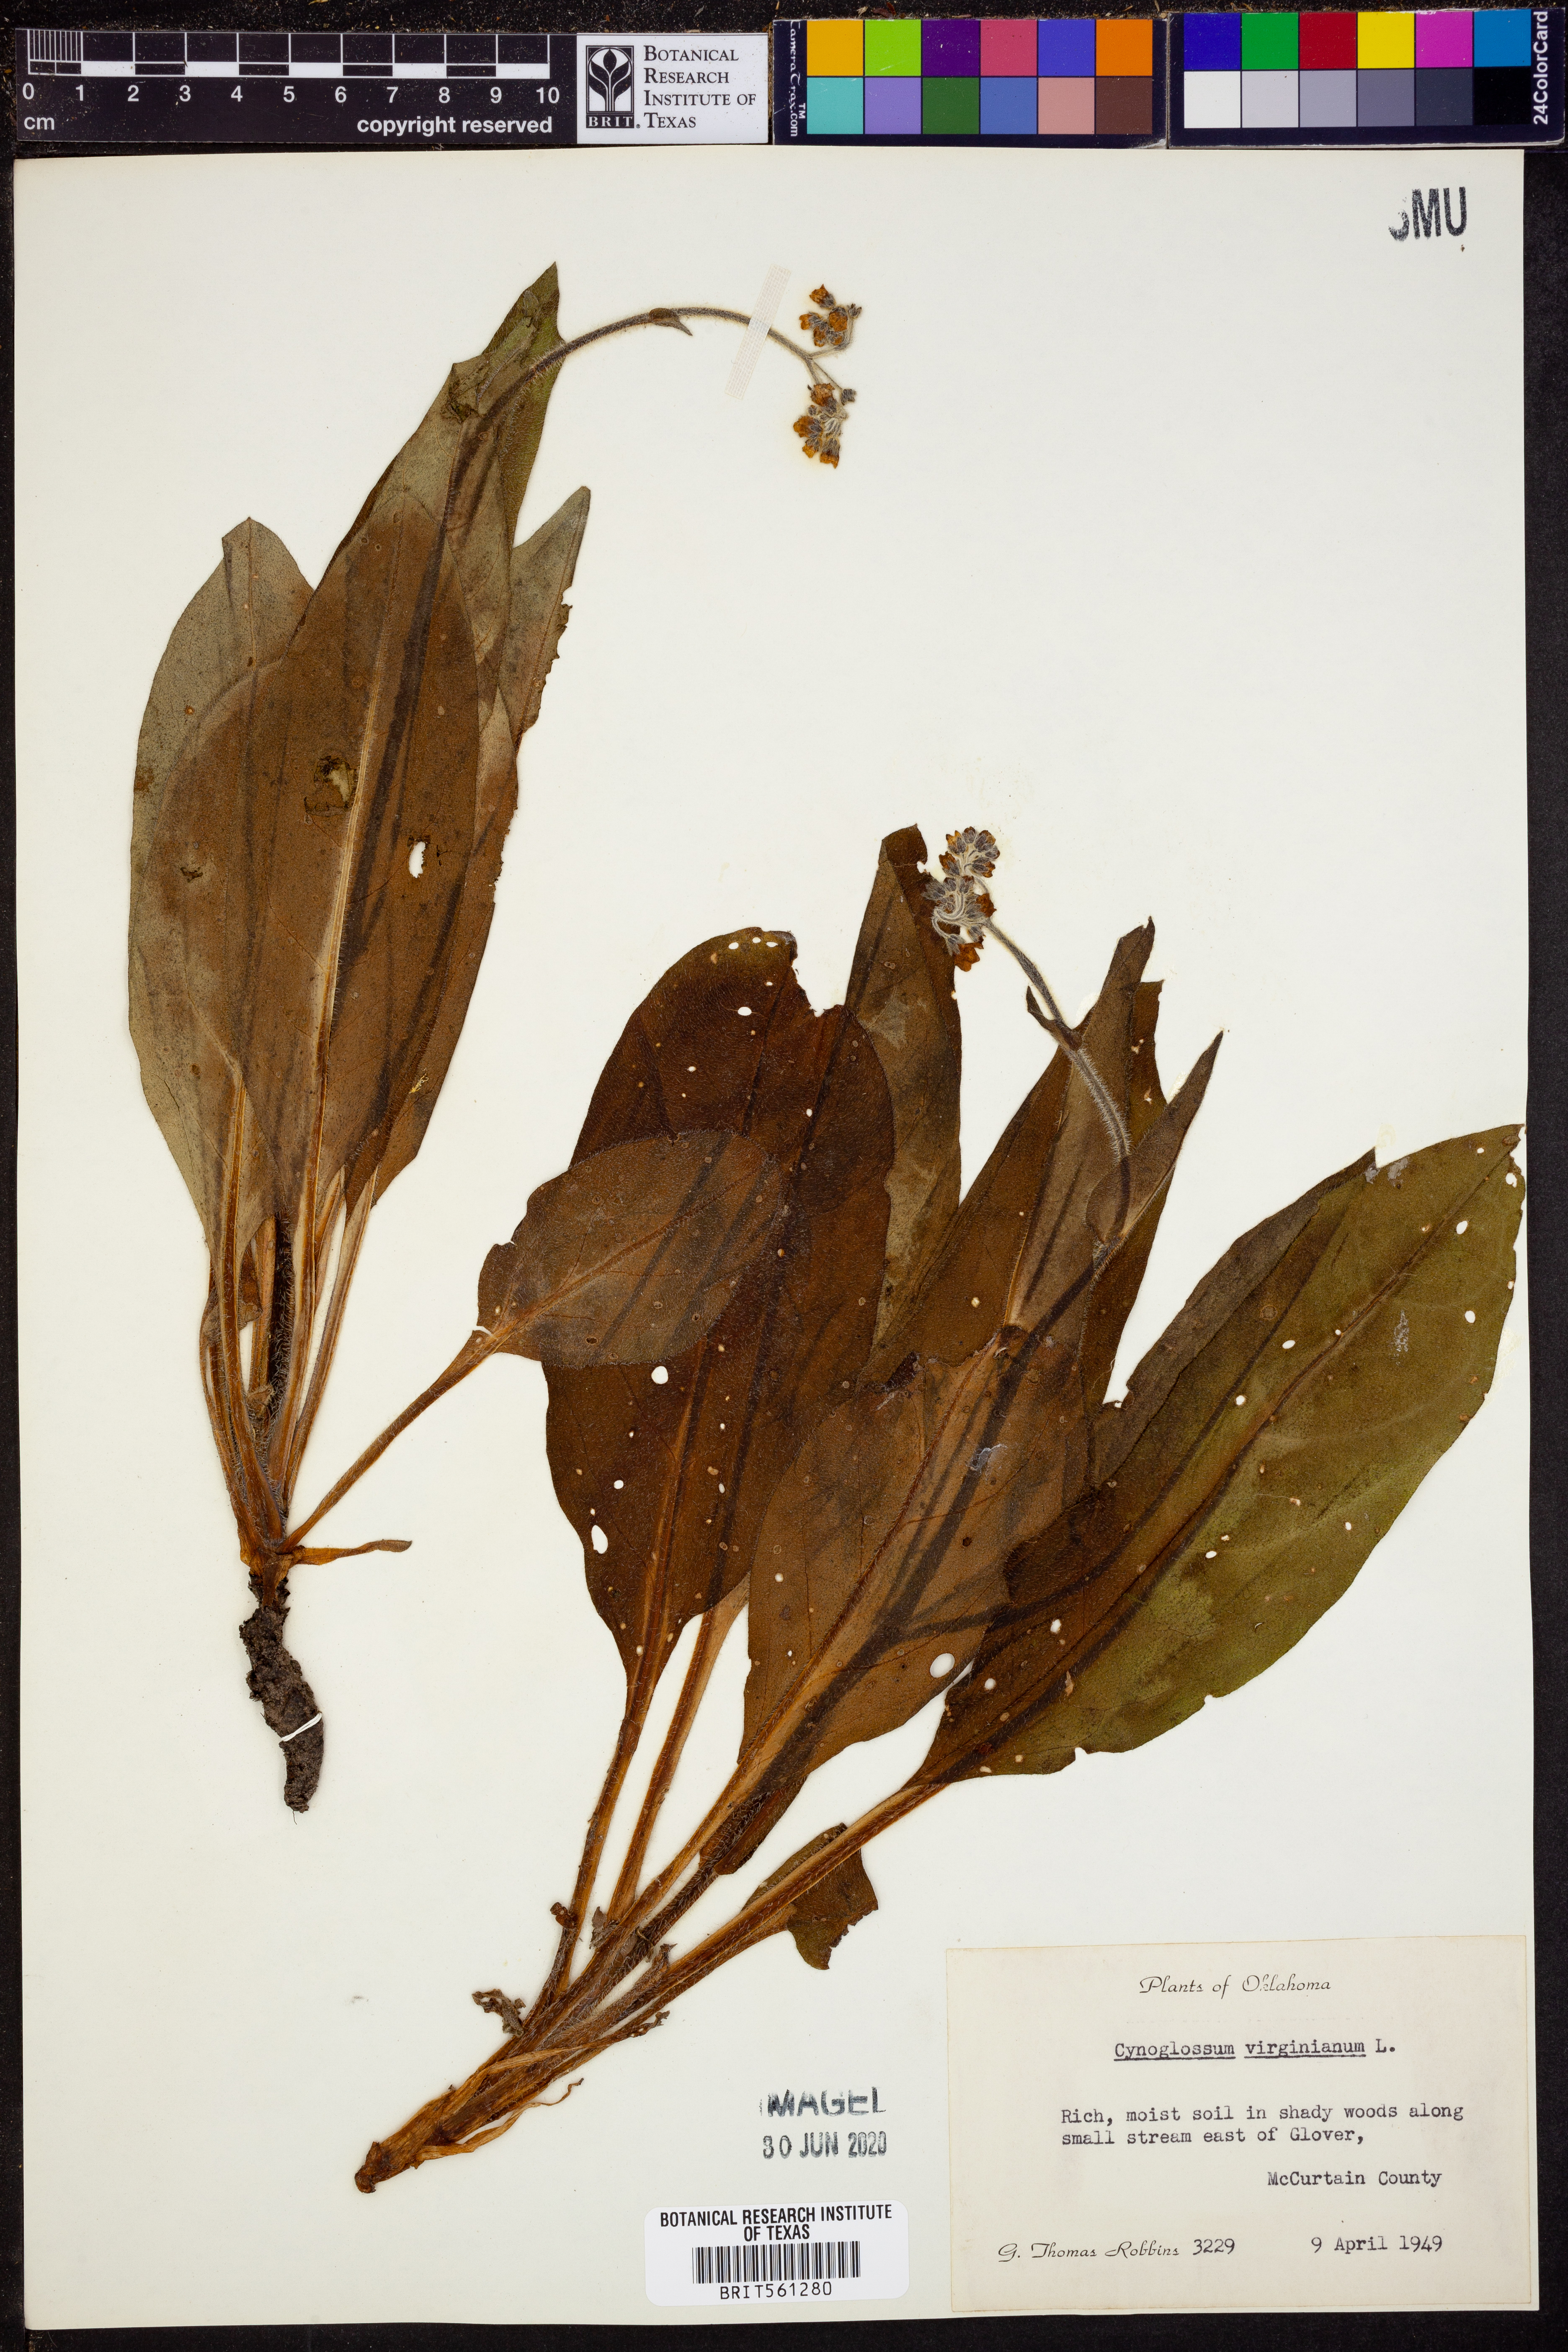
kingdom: Plantae
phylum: Tracheophyta
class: Magnoliopsida
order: Boraginales
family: Boraginaceae
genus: Andersonglossum
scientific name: Andersonglossum virginianum
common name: Wild comfrey
